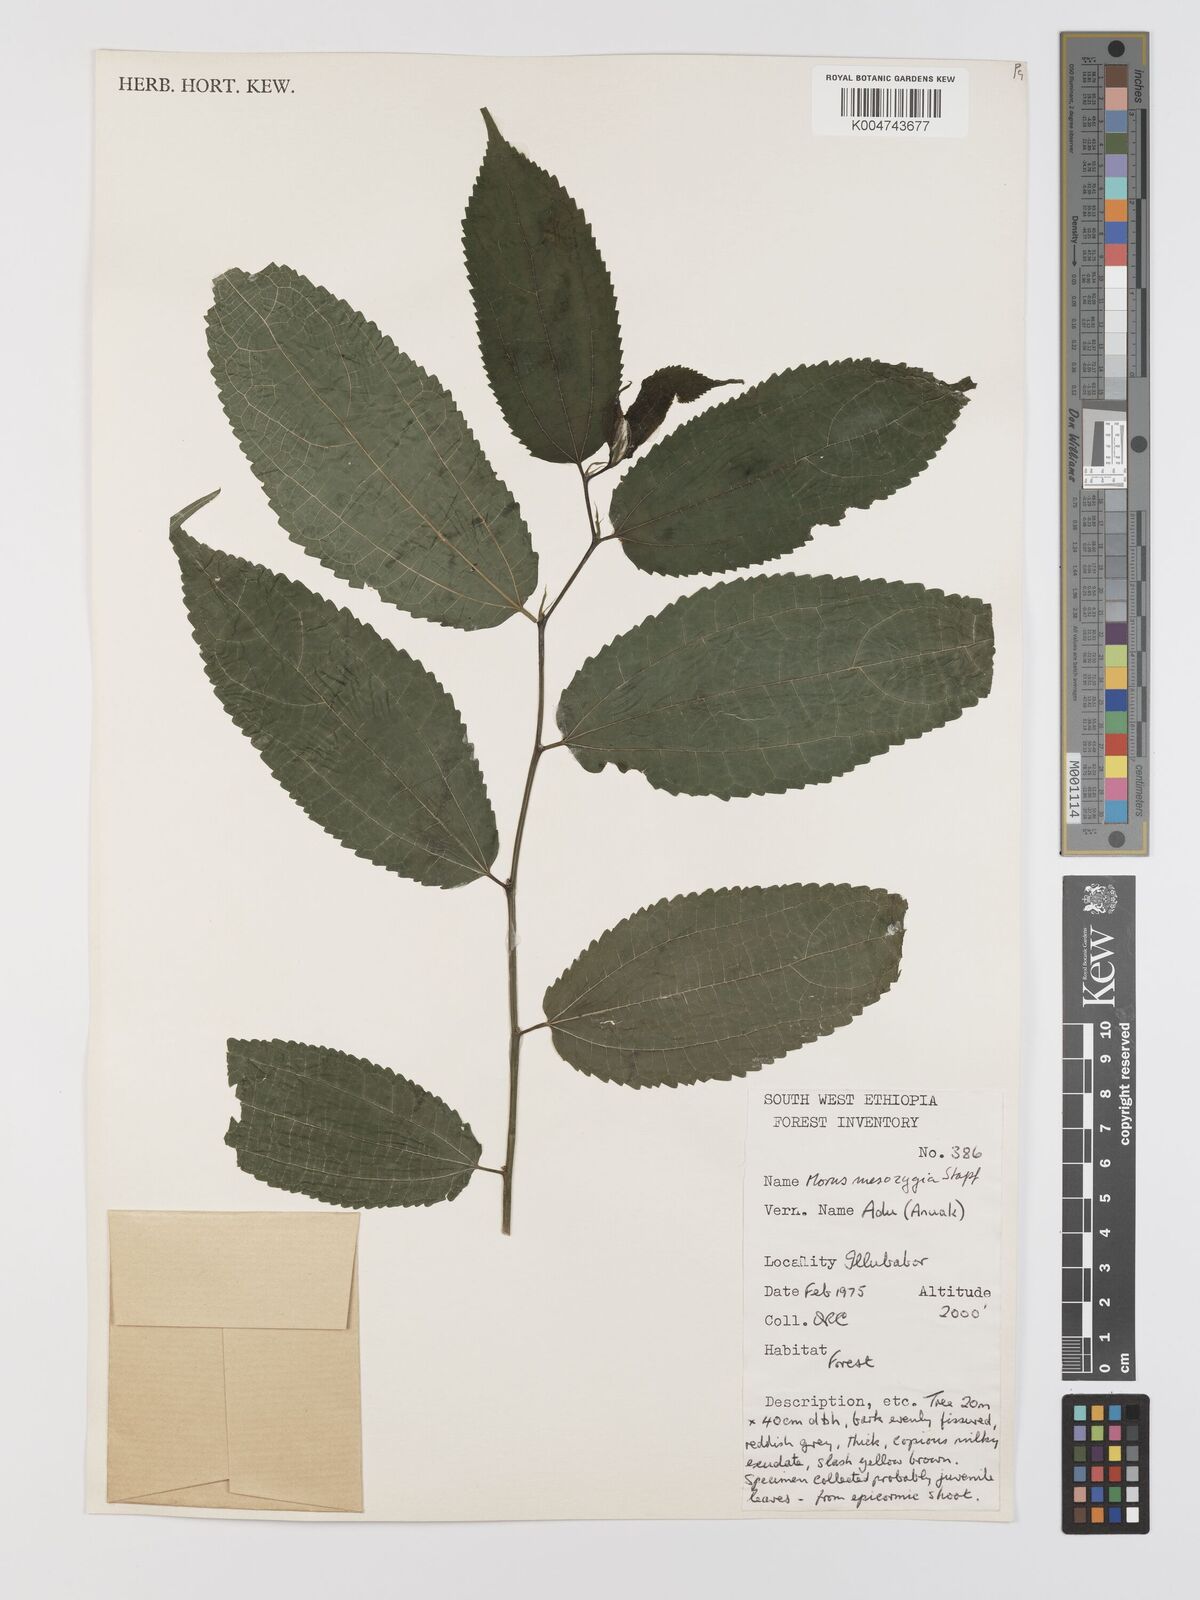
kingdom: Plantae
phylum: Tracheophyta
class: Magnoliopsida
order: Rosales
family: Moraceae
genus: Afromorus
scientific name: Afromorus mesozygia
